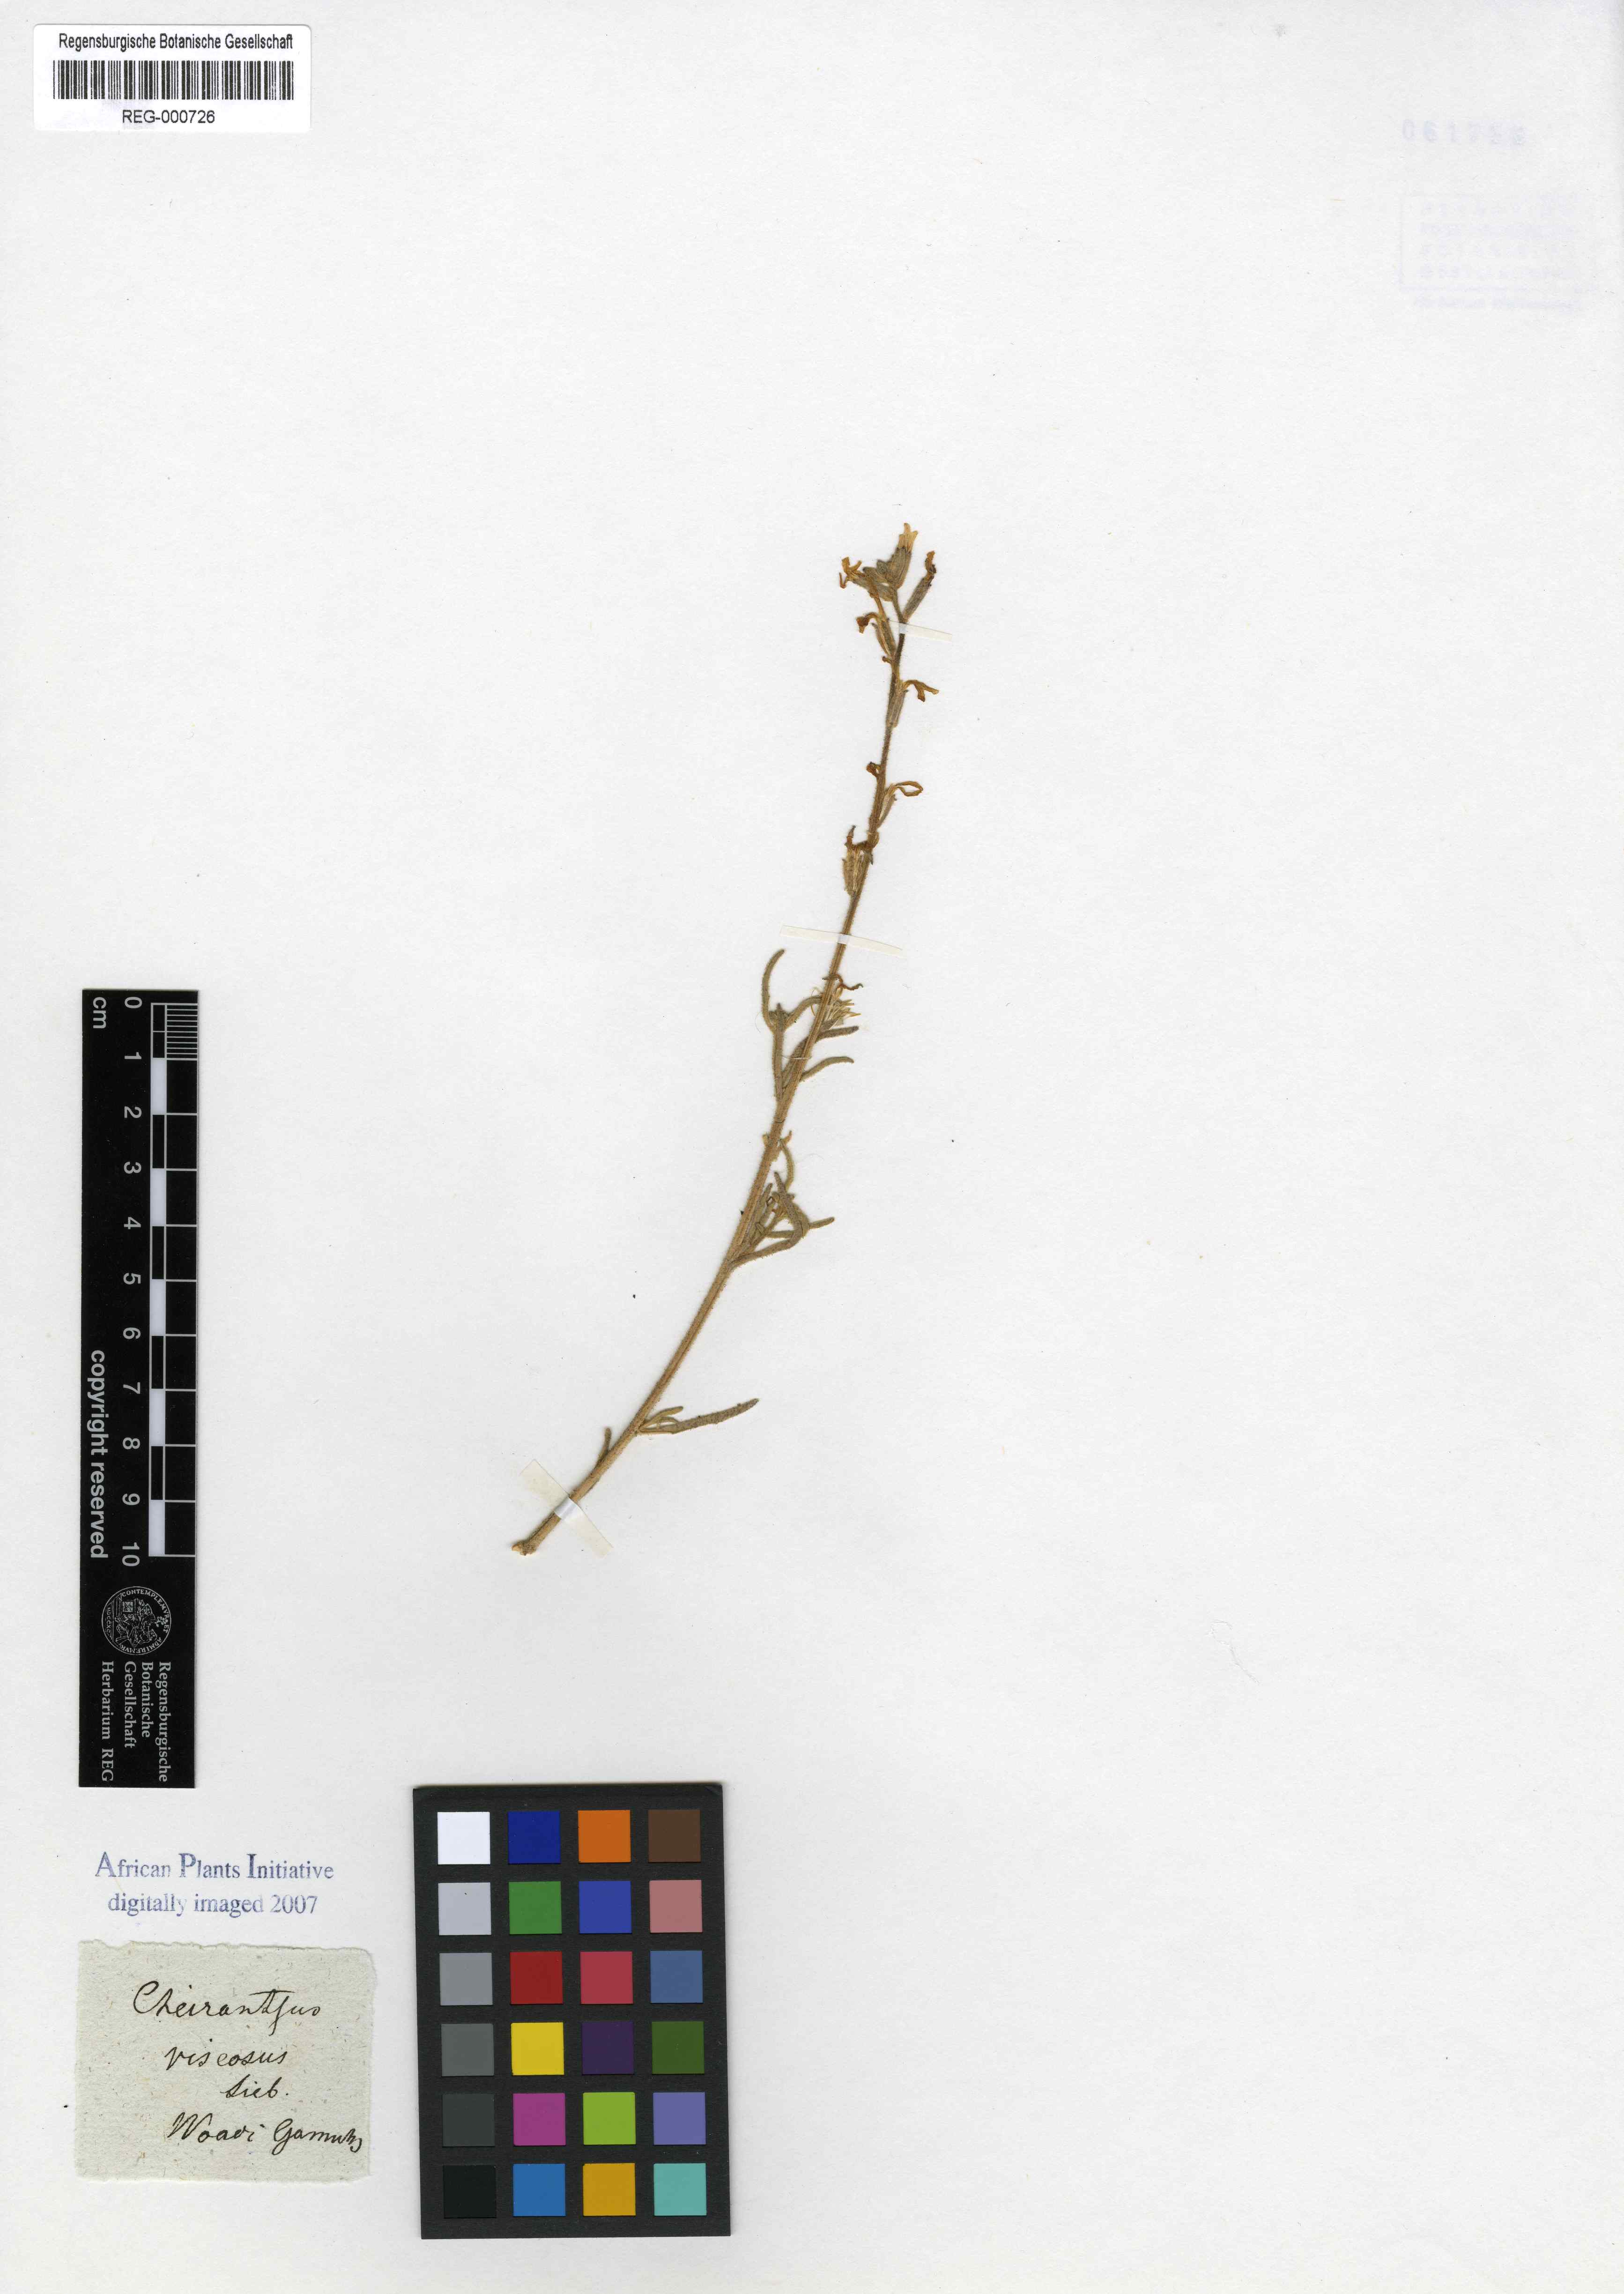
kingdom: Plantae
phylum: Tracheophyta
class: Magnoliopsida
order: Brassicales
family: Brassicaceae
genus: Erysimum
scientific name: Erysimum
